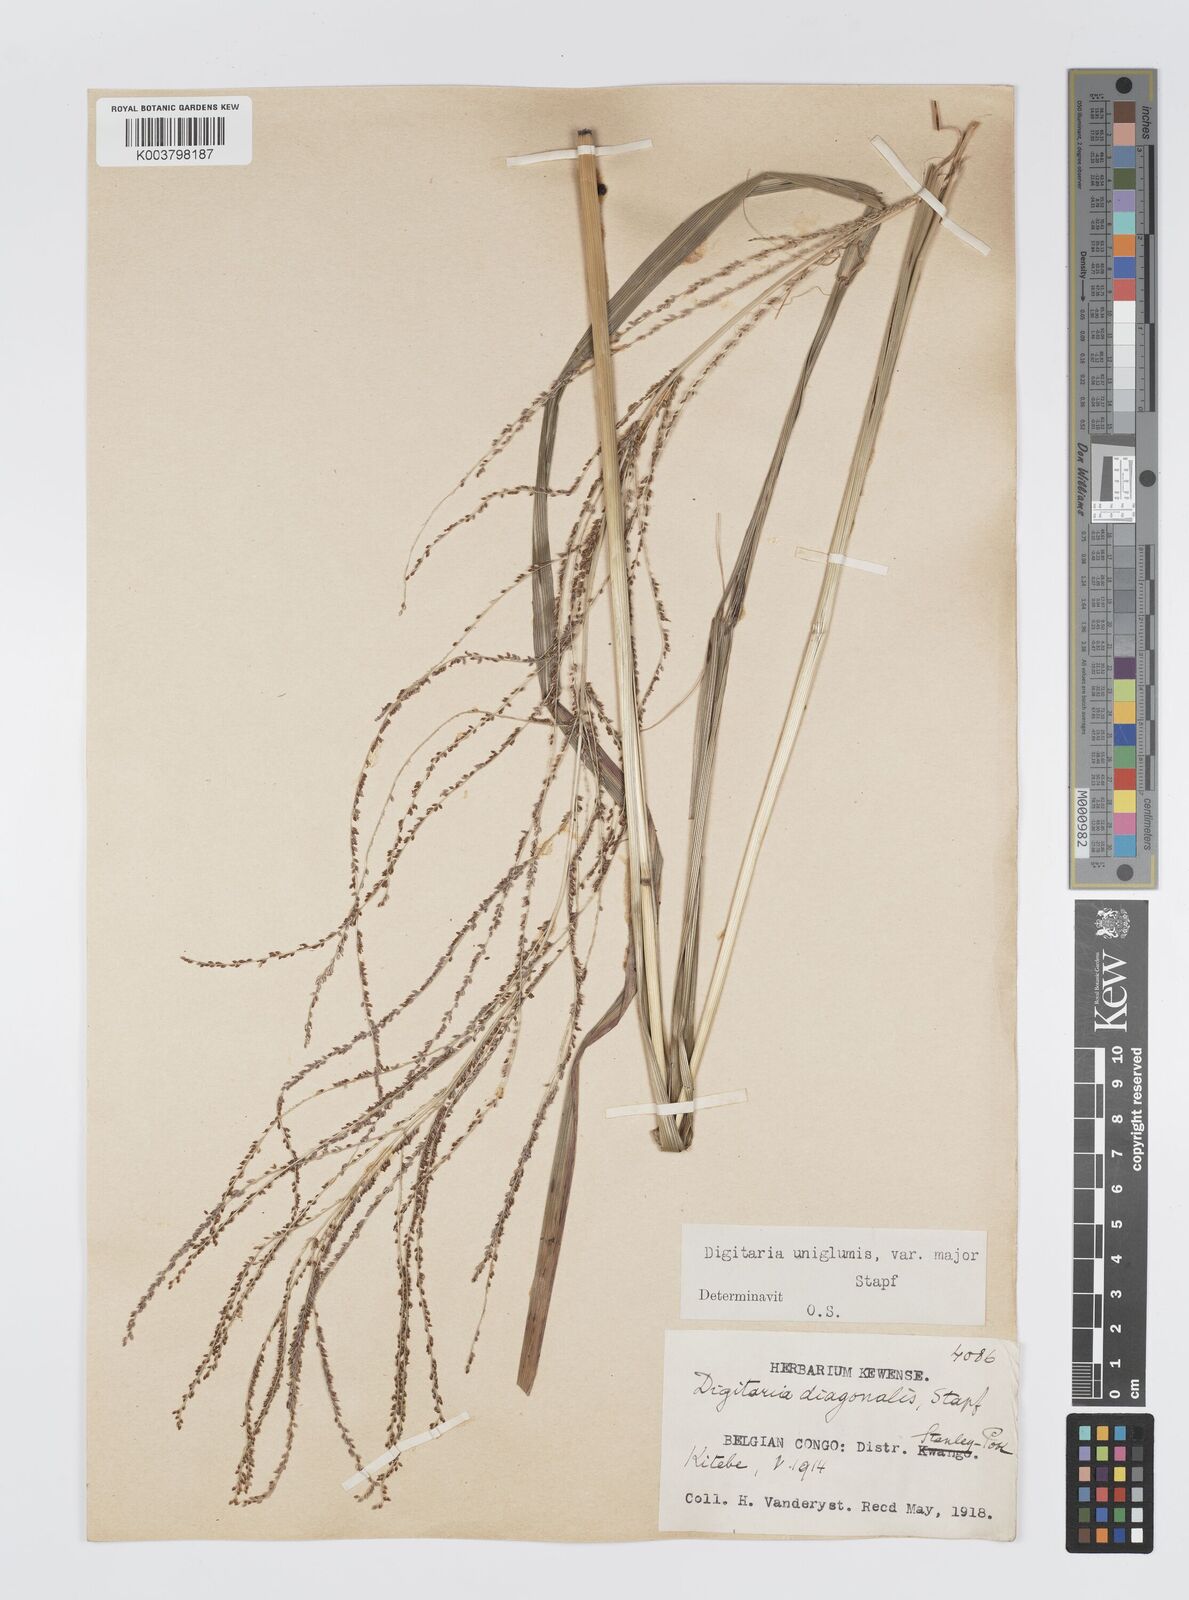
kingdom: Plantae
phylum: Tracheophyta
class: Liliopsida
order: Poales
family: Poaceae
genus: Digitaria
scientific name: Digitaria diagonalis
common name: Brown-seed finger grass
